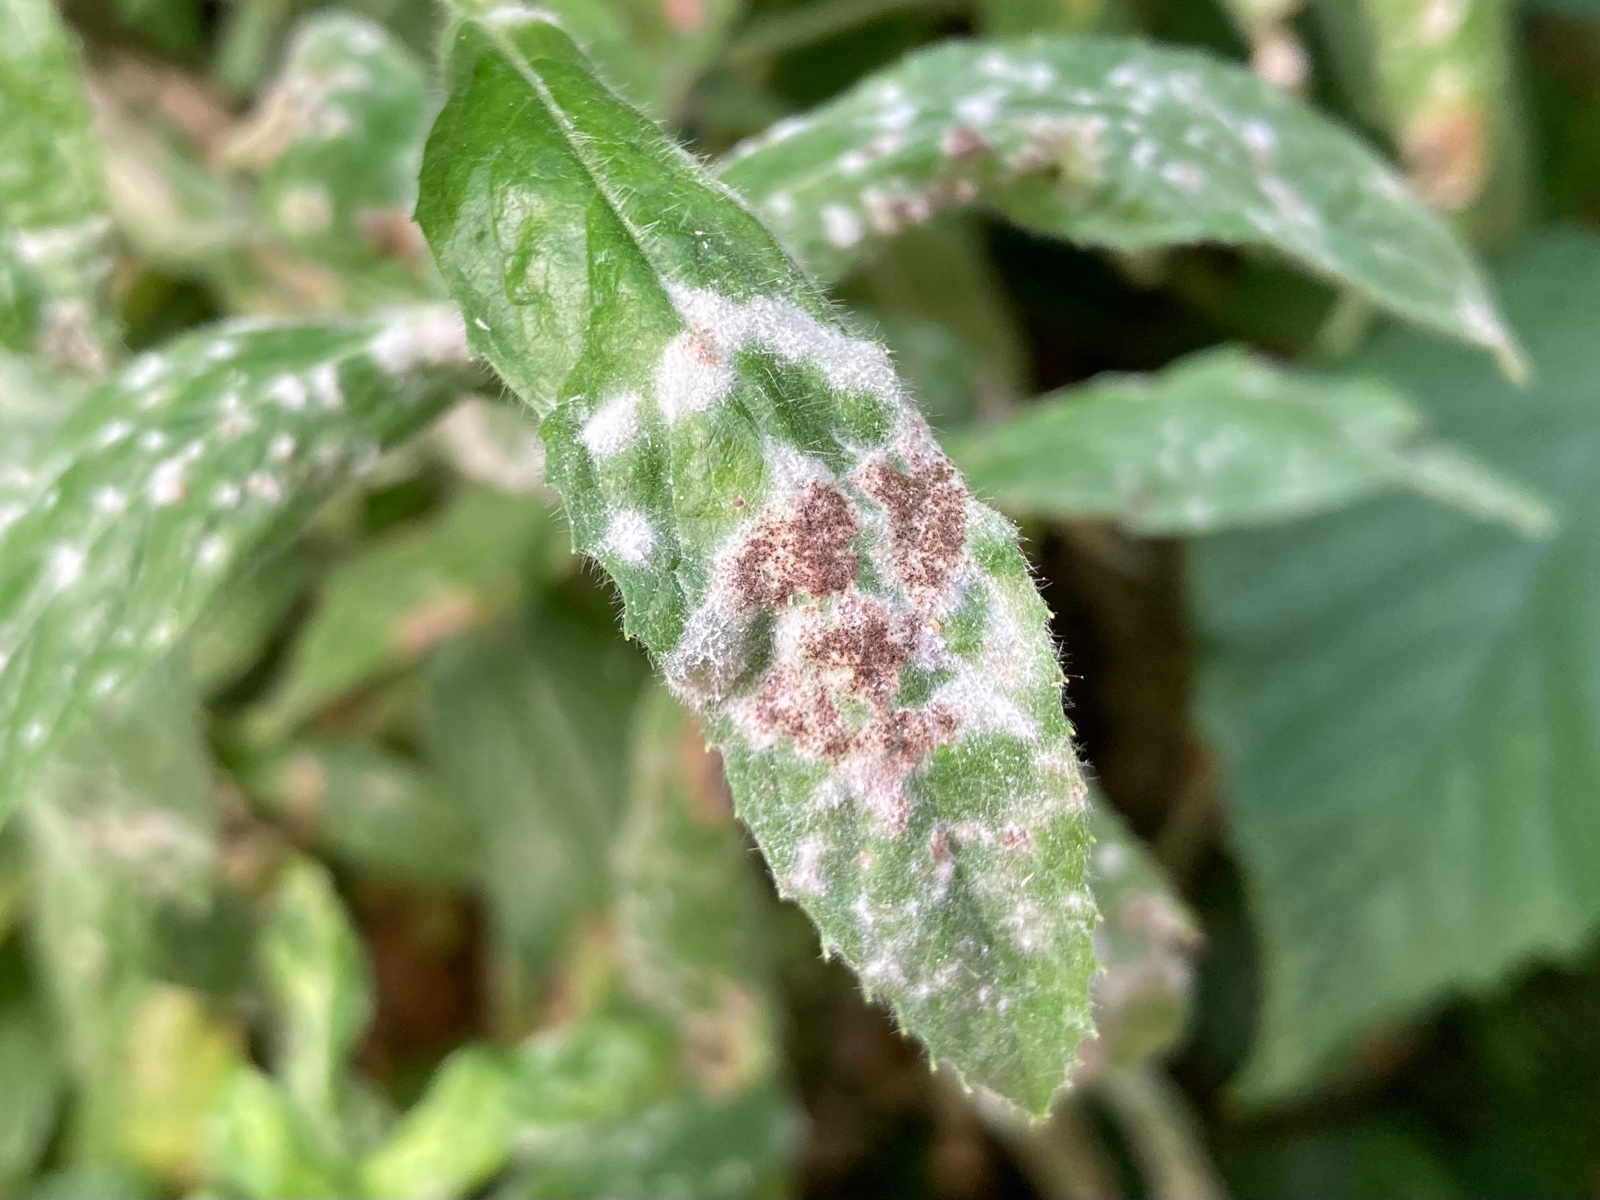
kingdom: Fungi
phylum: Ascomycota
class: Leotiomycetes
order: Helotiales
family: Erysiphaceae
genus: Podosphaera
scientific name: Podosphaera epilobii
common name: dueurt-meldug
